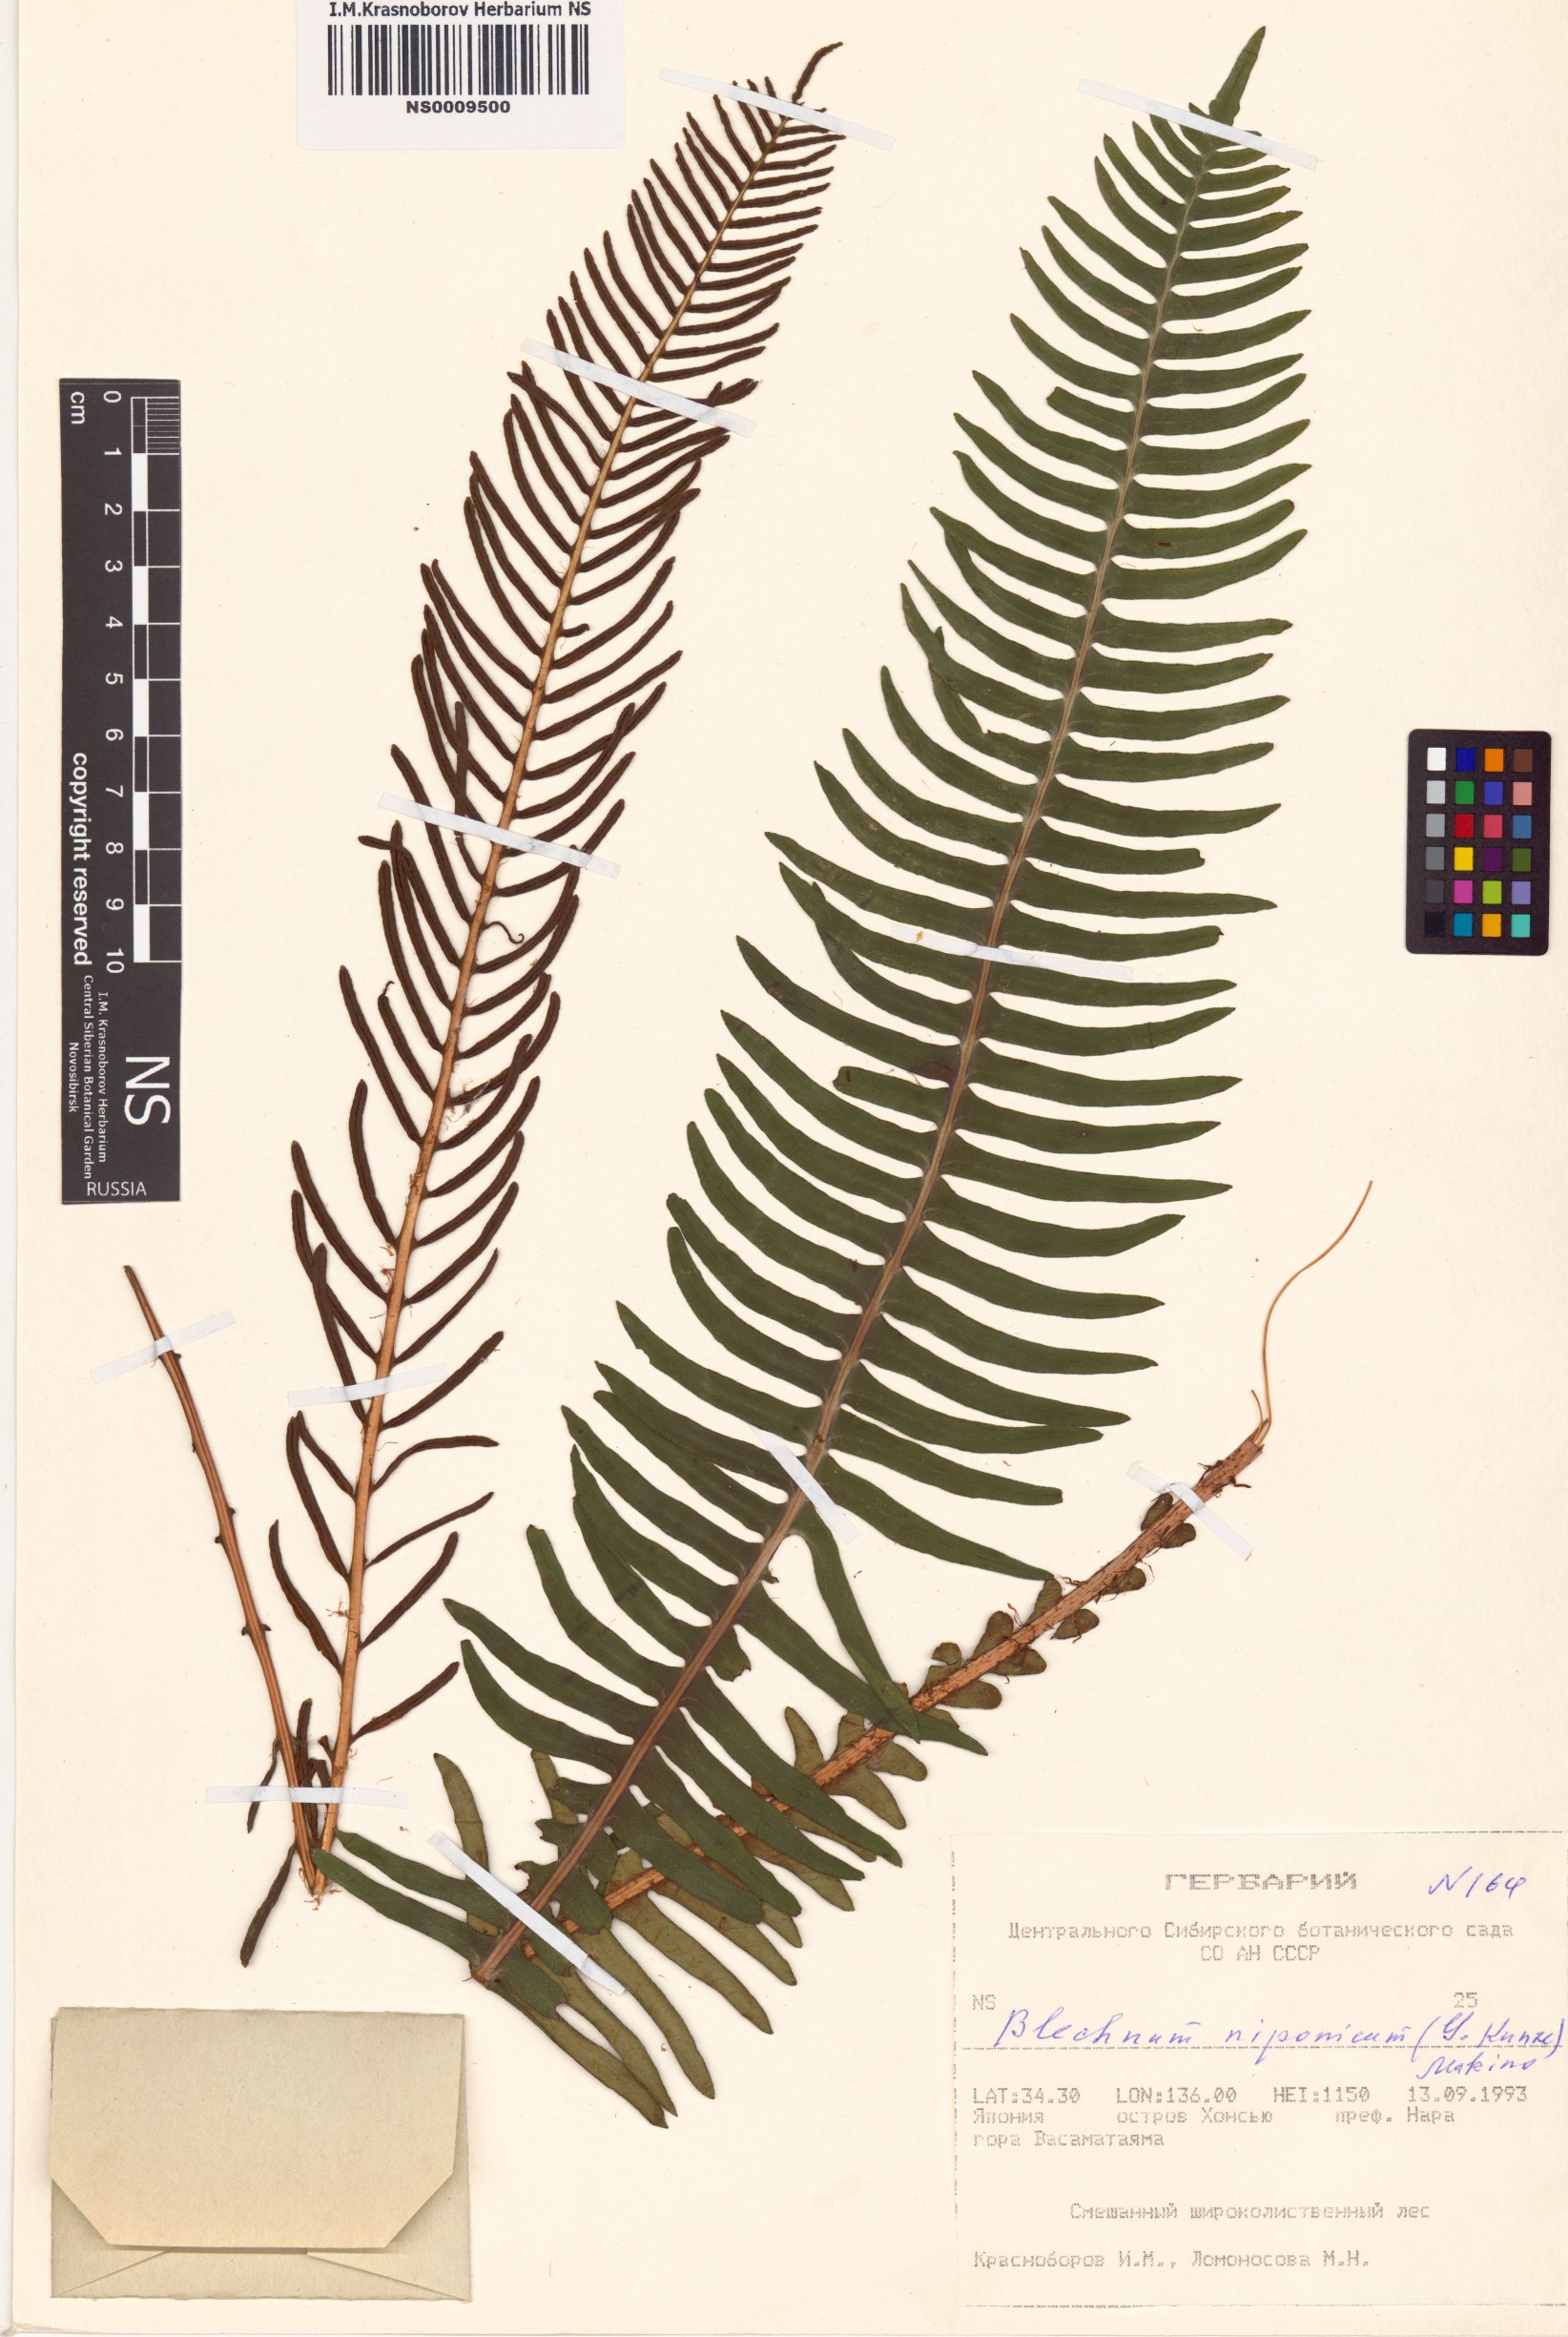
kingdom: Plantae
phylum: Tracheophyta
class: Polypodiopsida
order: Polypodiales
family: Blechnaceae
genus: Spicantopsis
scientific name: Spicantopsis niponica
